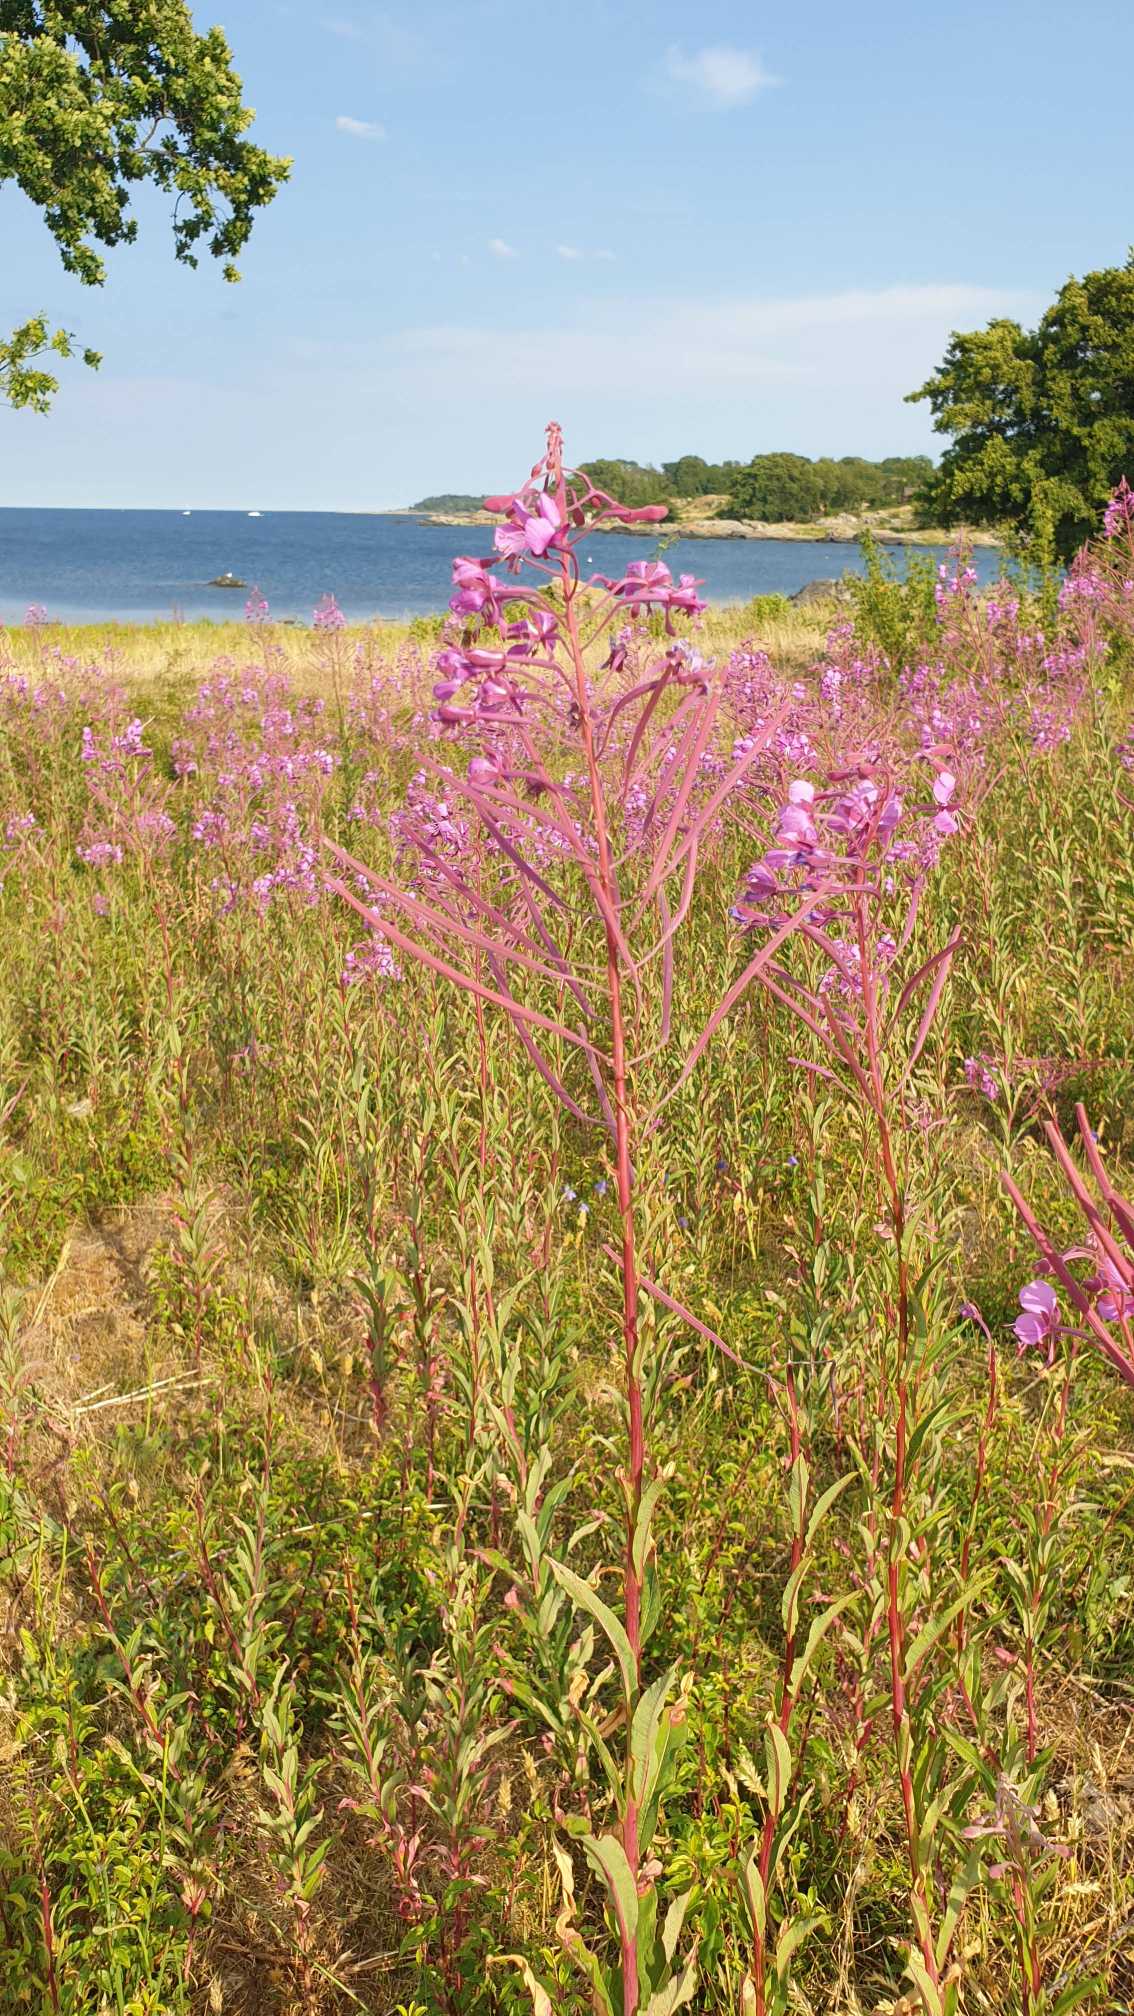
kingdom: Plantae
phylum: Tracheophyta
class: Magnoliopsida
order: Myrtales
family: Onagraceae
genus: Chamaenerion
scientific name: Chamaenerion angustifolium
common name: Gederams
